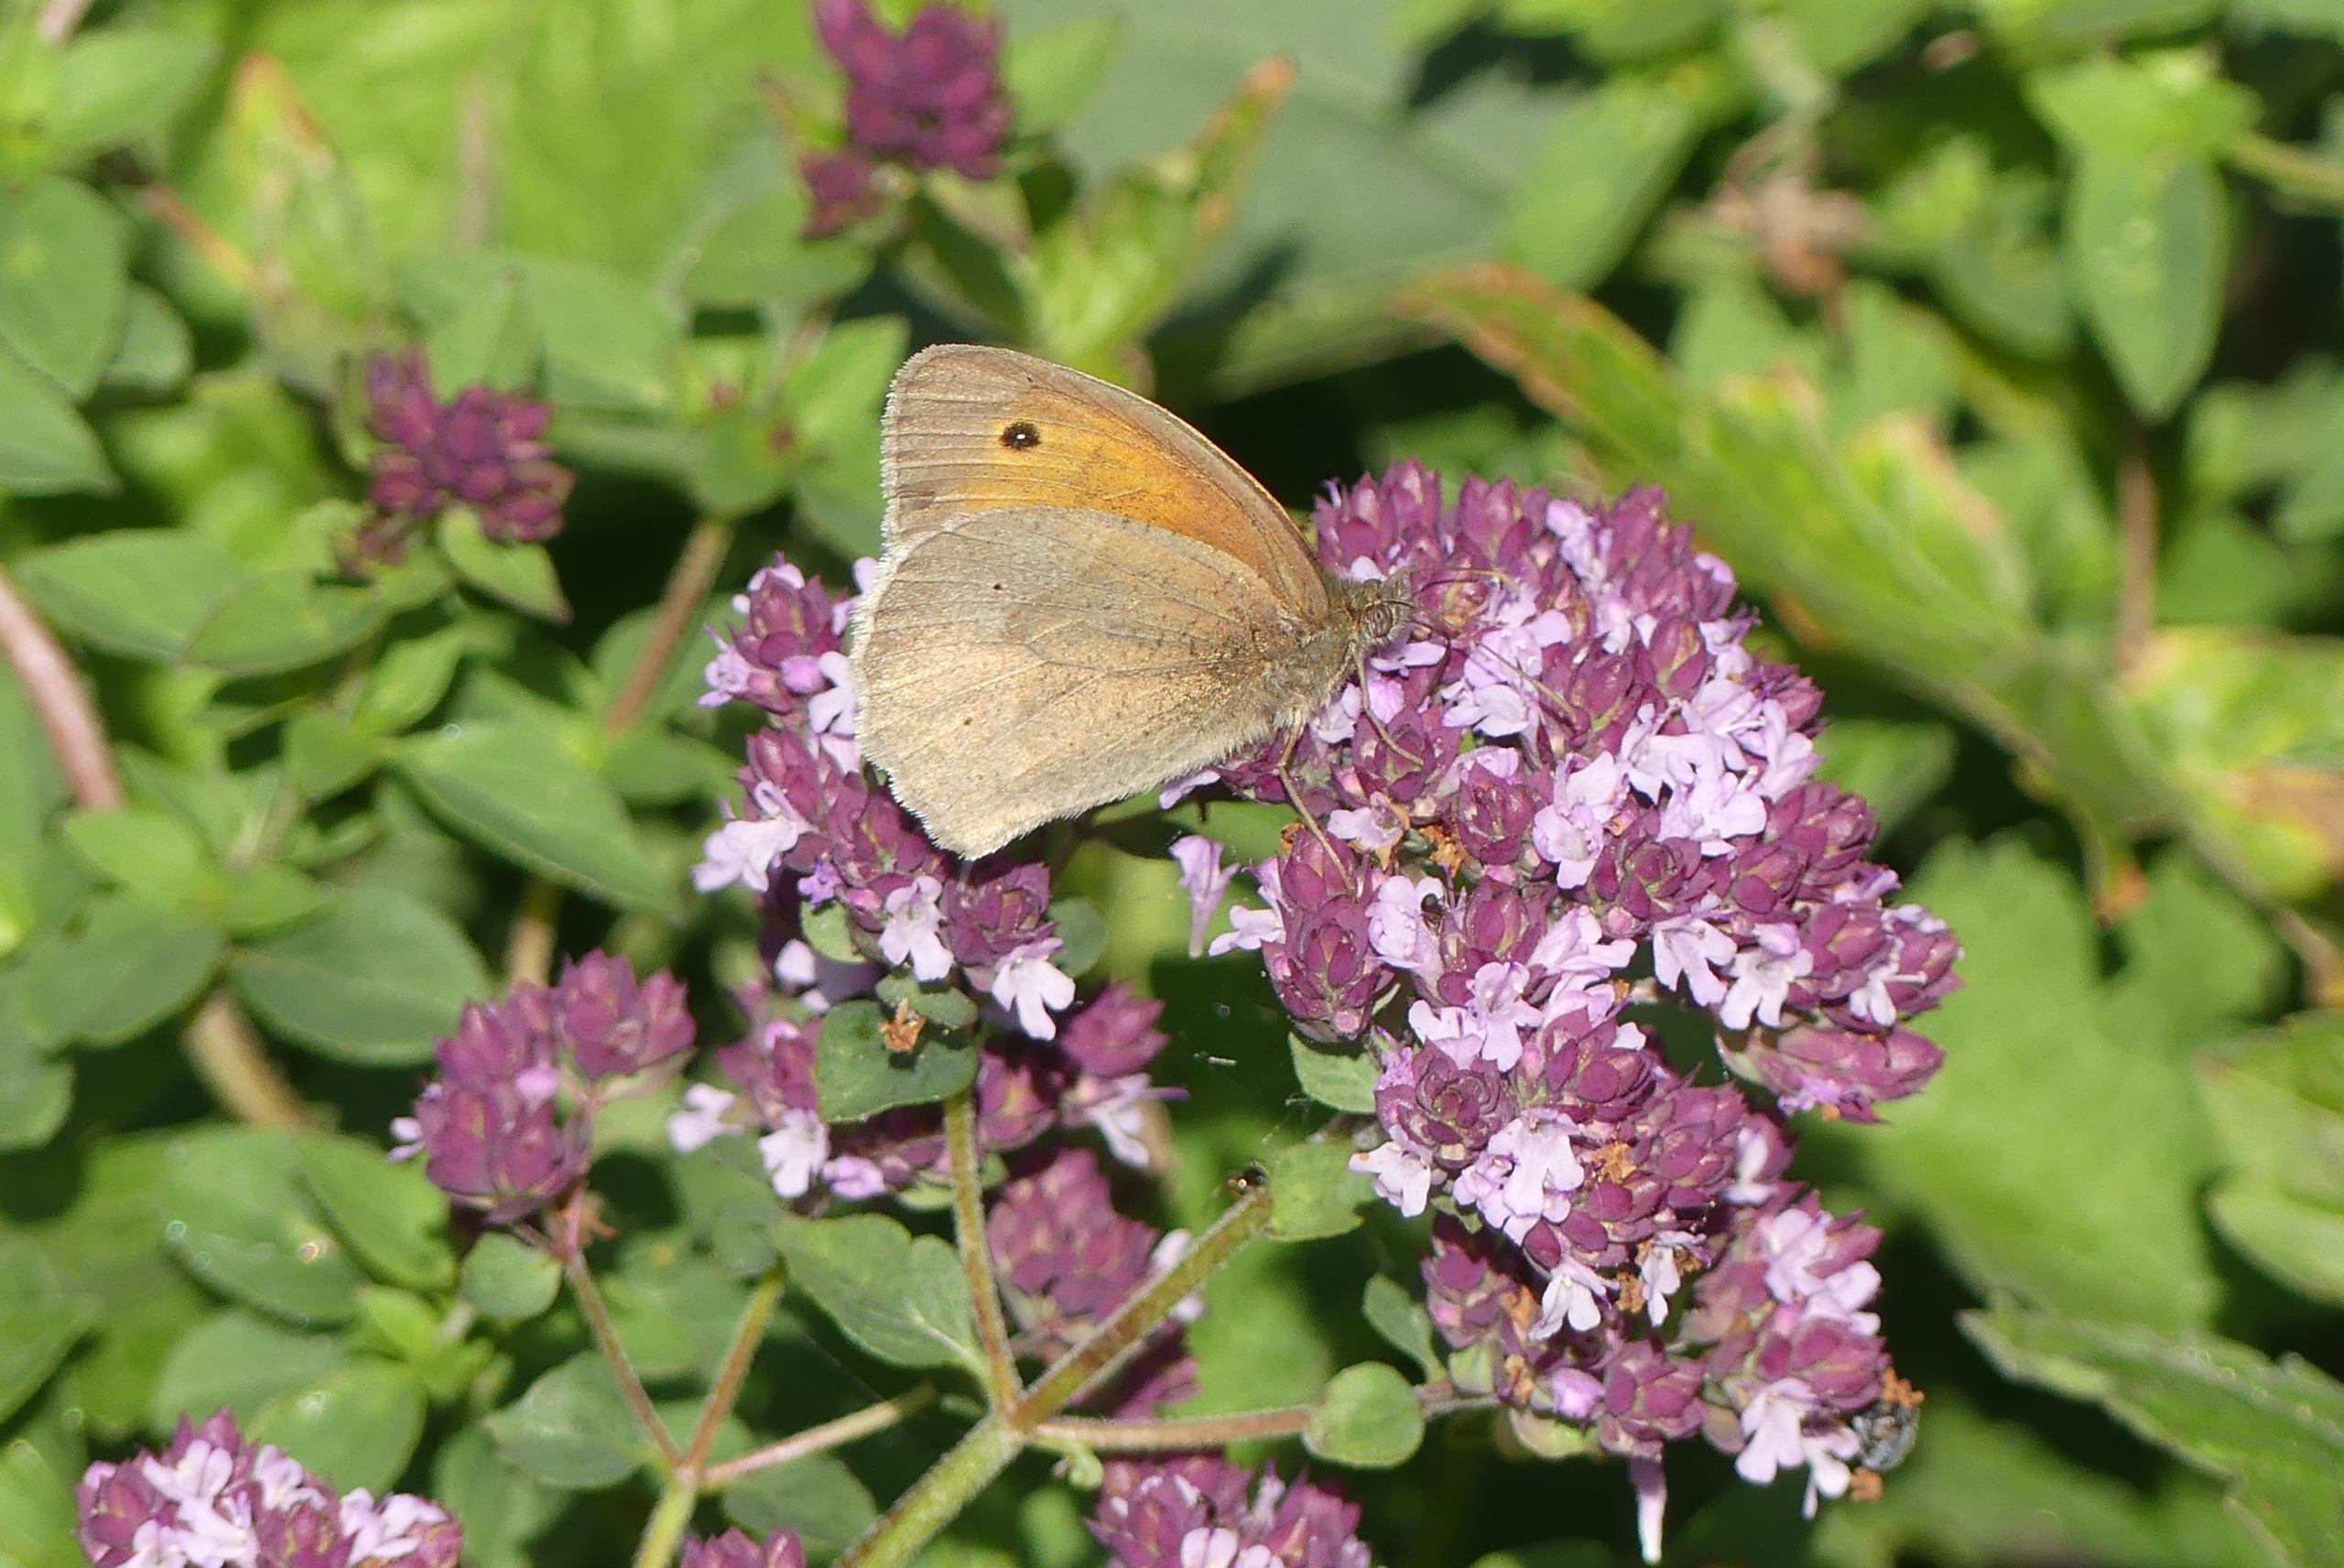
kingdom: Animalia
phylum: Arthropoda
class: Insecta
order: Lepidoptera
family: Nymphalidae
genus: Maniola
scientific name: Maniola jurtina
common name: Græsrandøje
